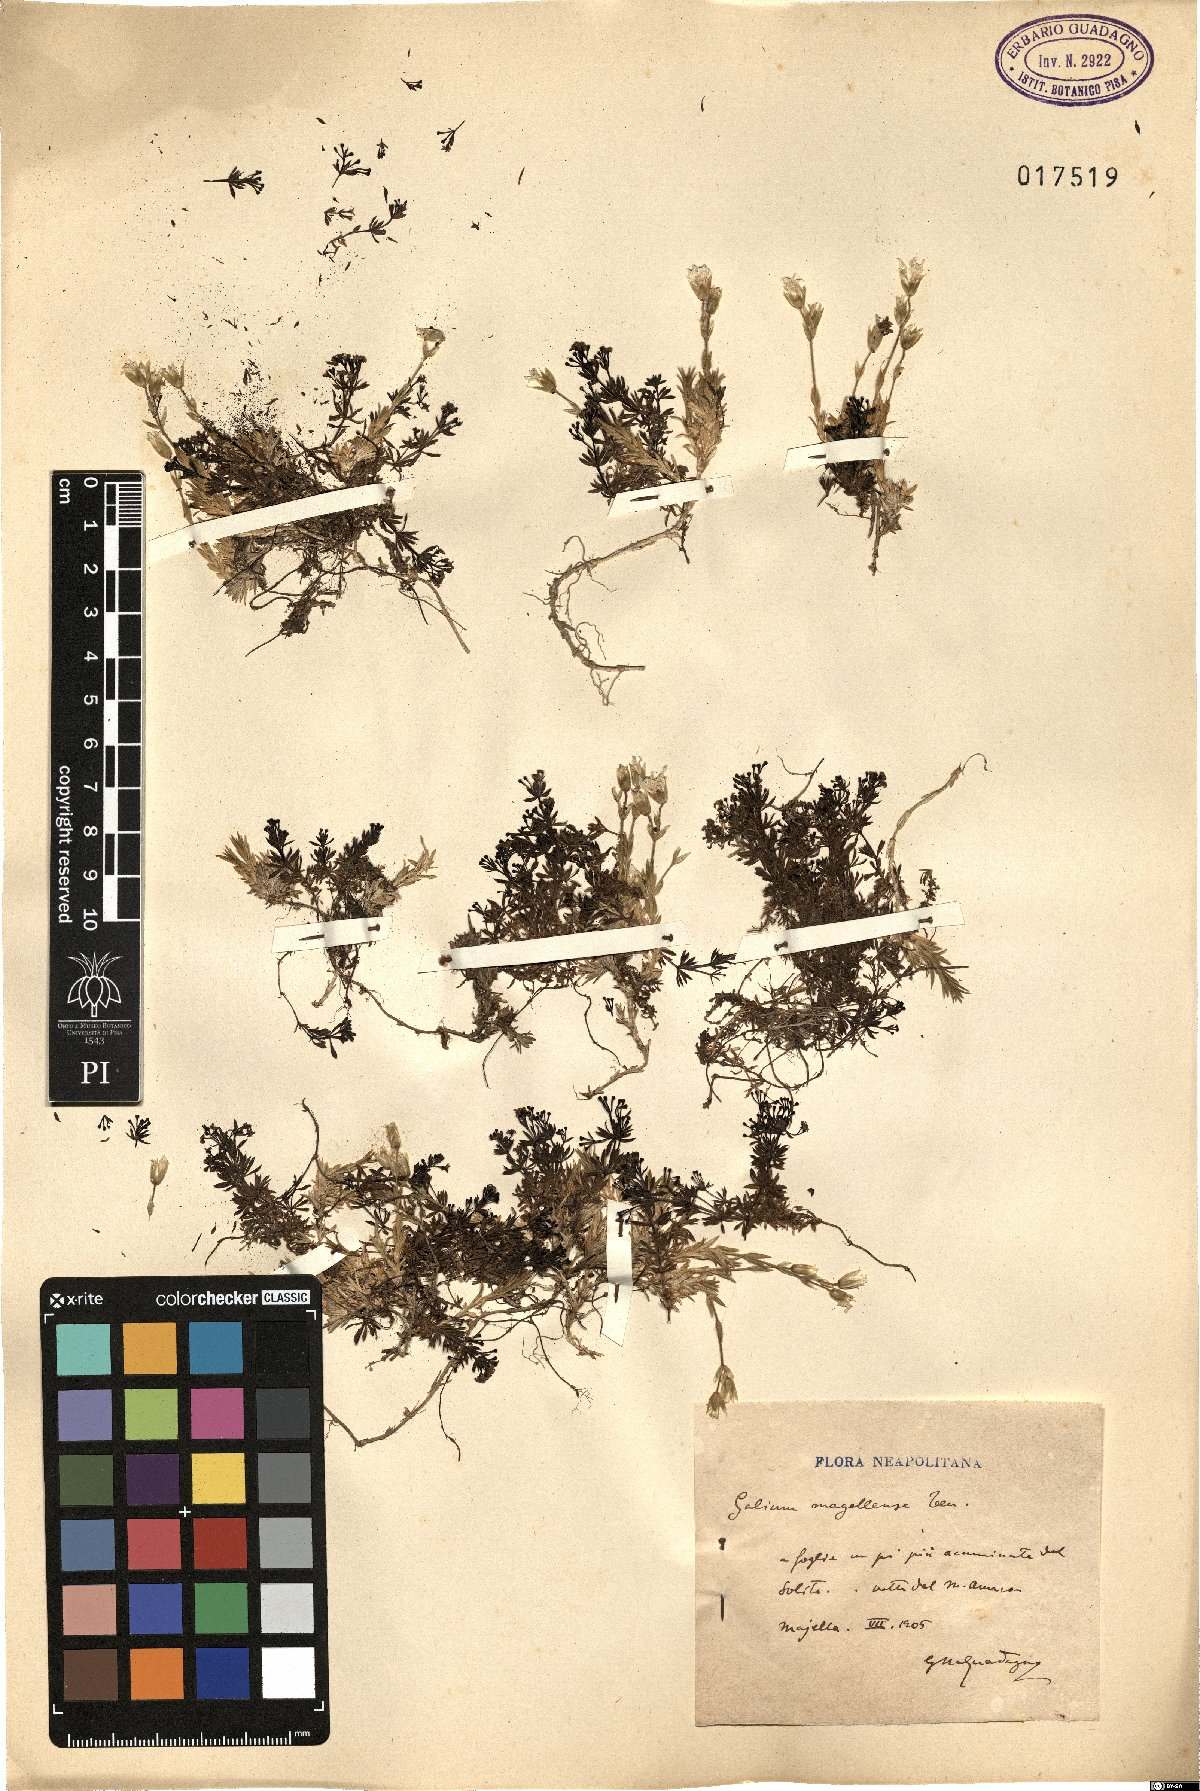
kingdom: Plantae
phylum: Tracheophyta
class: Magnoliopsida
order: Gentianales
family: Rubiaceae
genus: Galium
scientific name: Galium magellense
